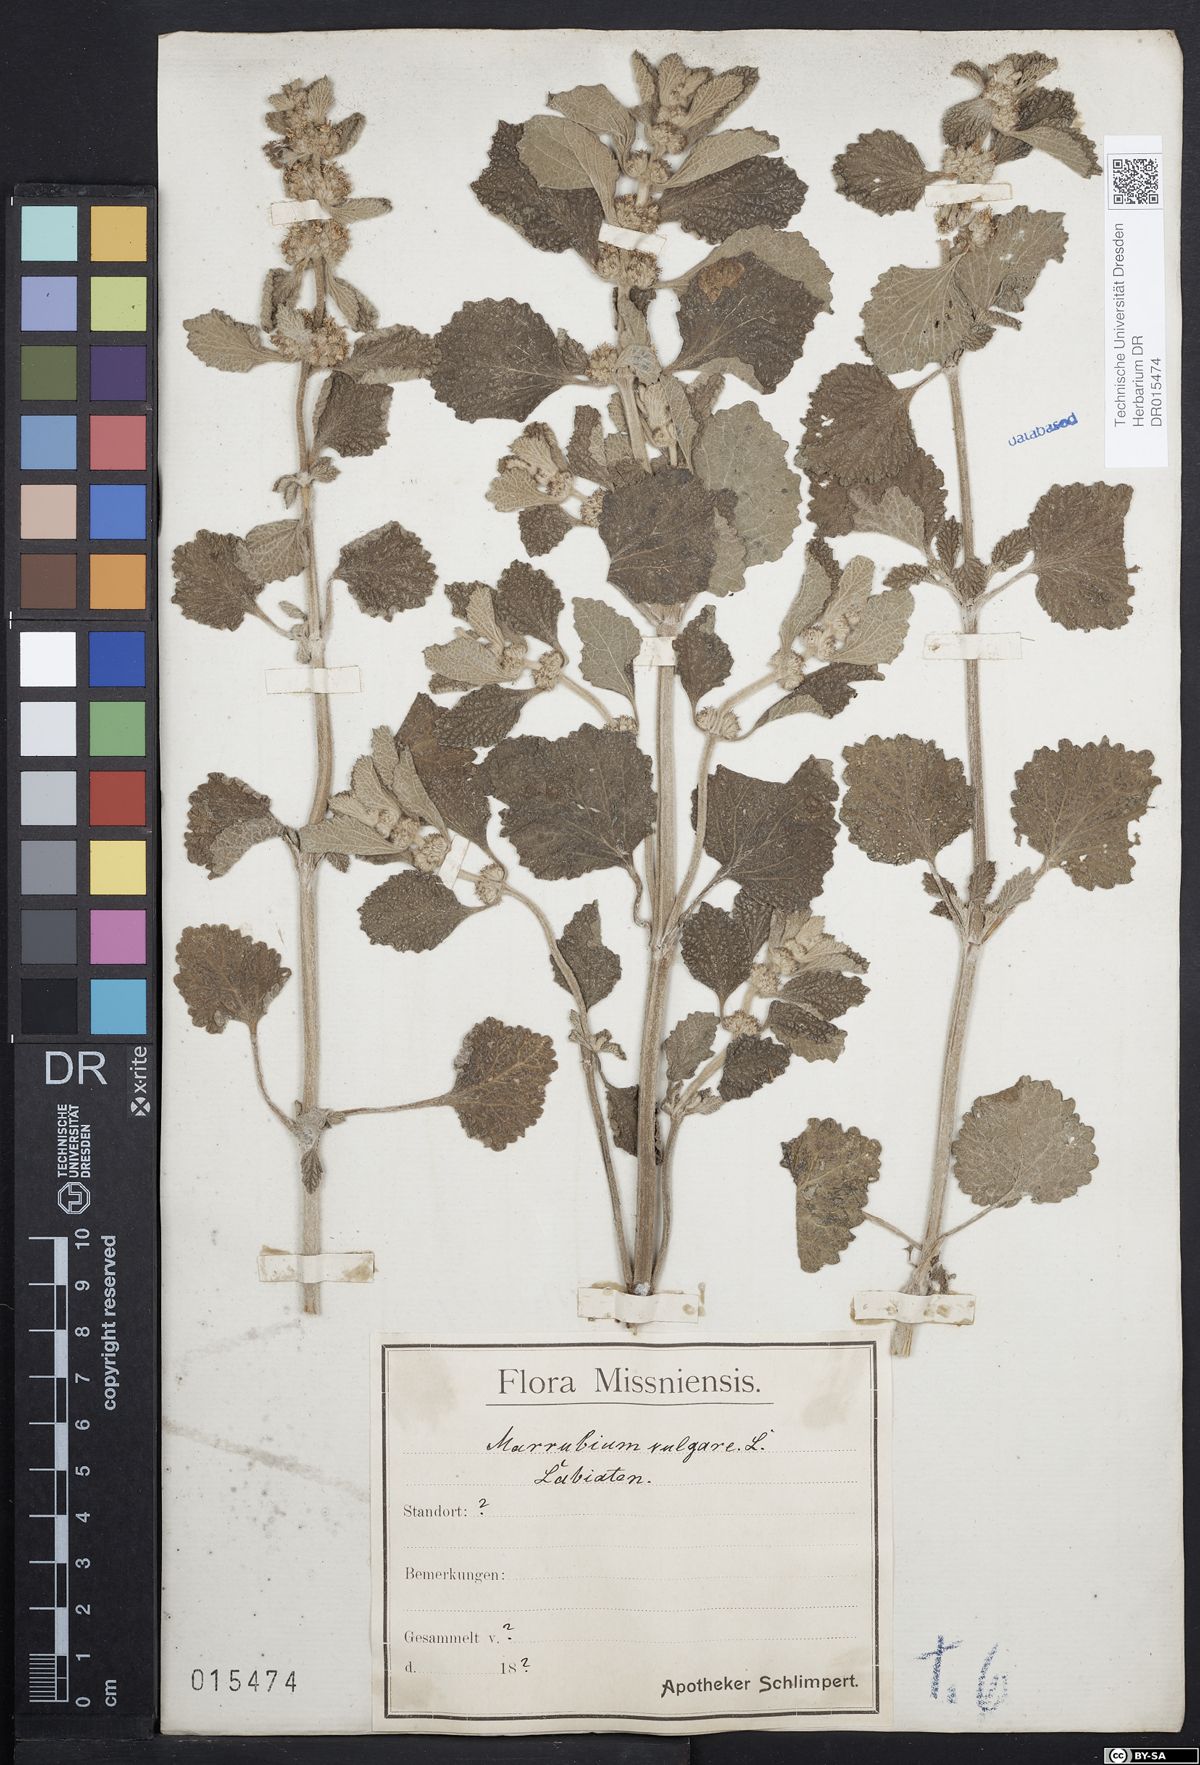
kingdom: Plantae
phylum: Tracheophyta
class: Magnoliopsida
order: Lamiales
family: Lamiaceae
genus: Marrubium
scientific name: Marrubium vulgare
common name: Horehound
